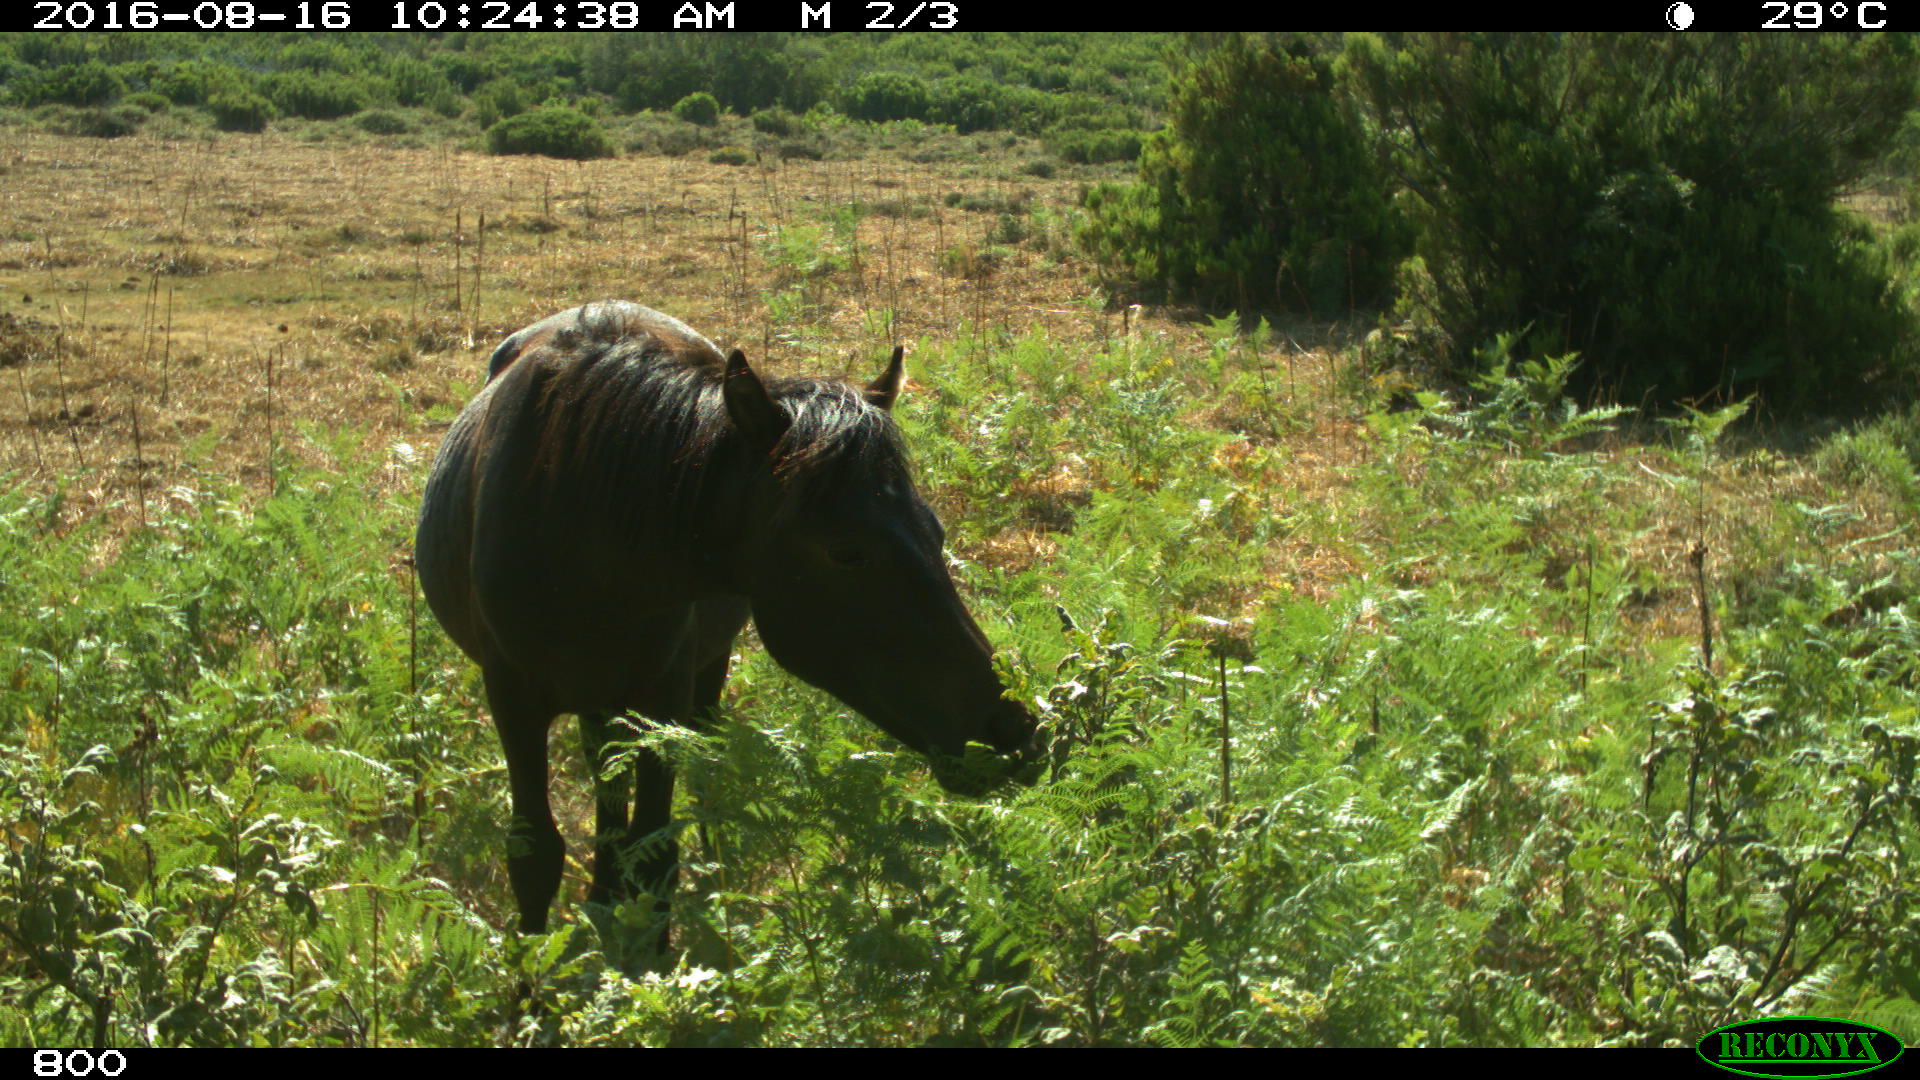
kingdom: Animalia
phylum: Chordata
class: Mammalia
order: Perissodactyla
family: Equidae
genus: Equus
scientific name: Equus caballus
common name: Horse
